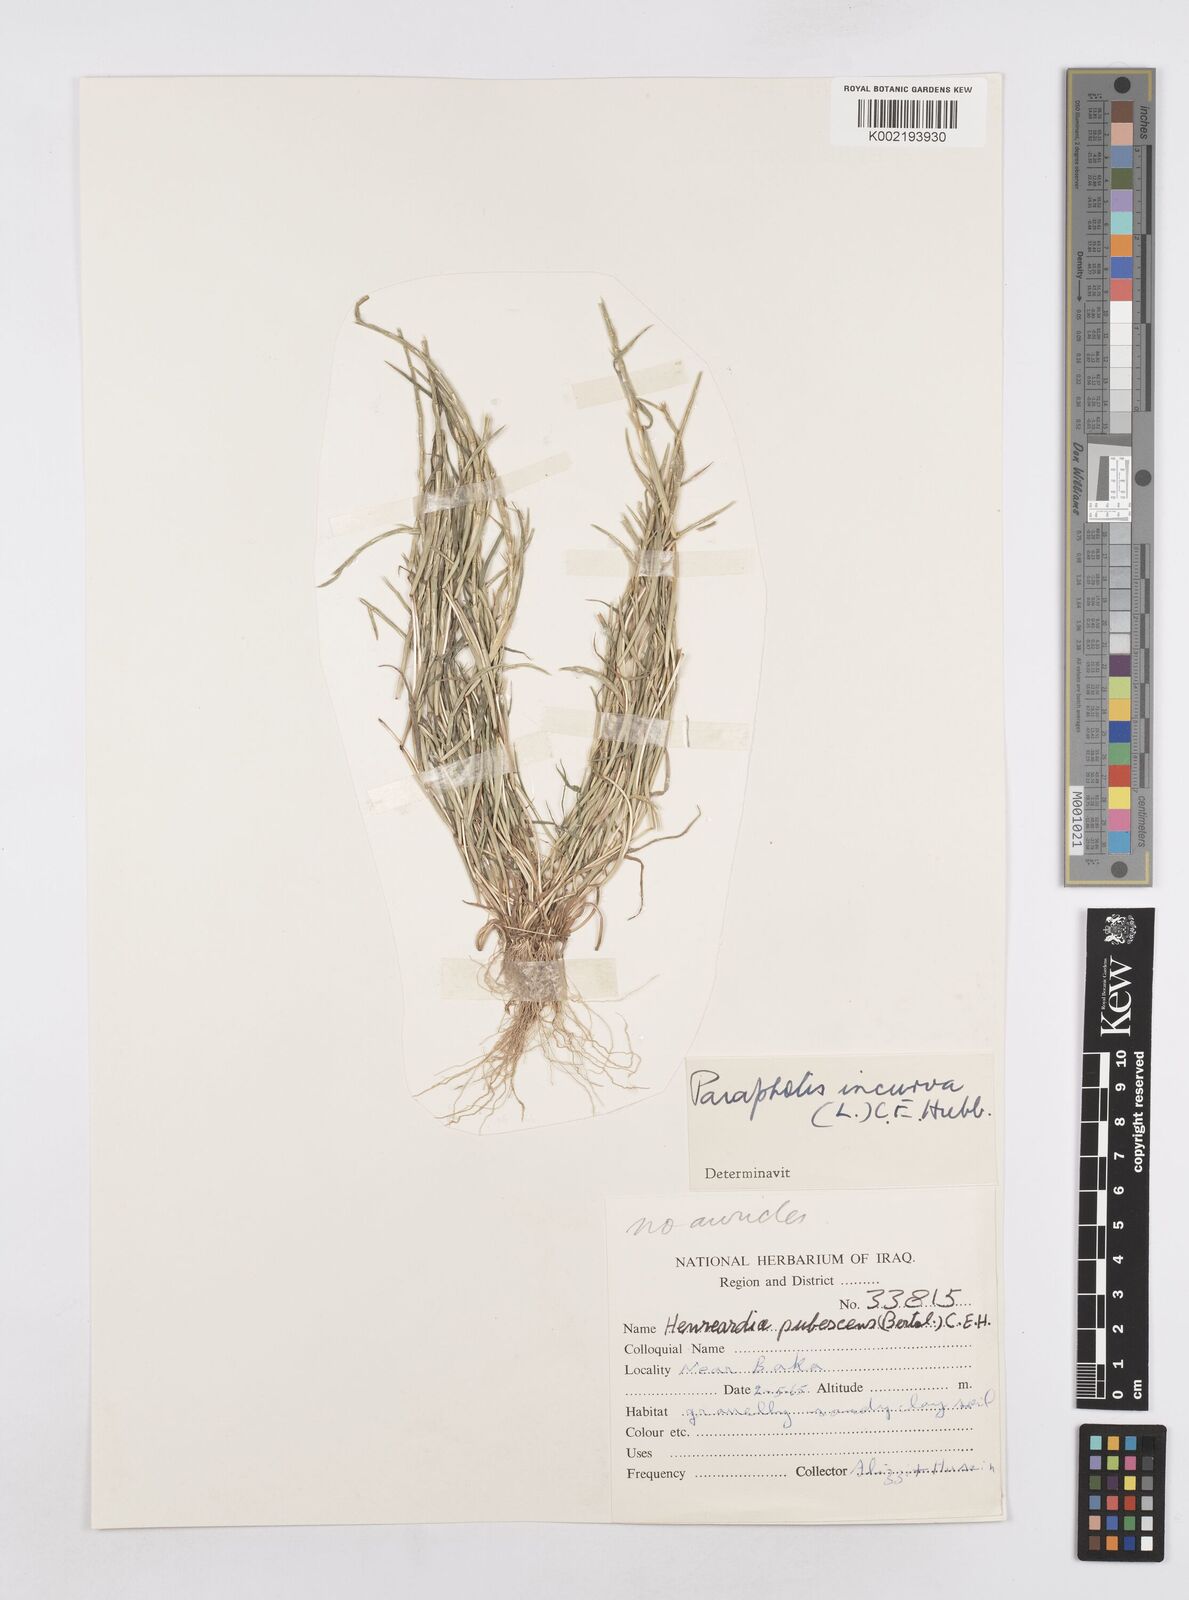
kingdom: Plantae
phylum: Tracheophyta
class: Liliopsida
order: Poales
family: Poaceae
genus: Parapholis
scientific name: Parapholis incurva
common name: Curved sicklegrass
